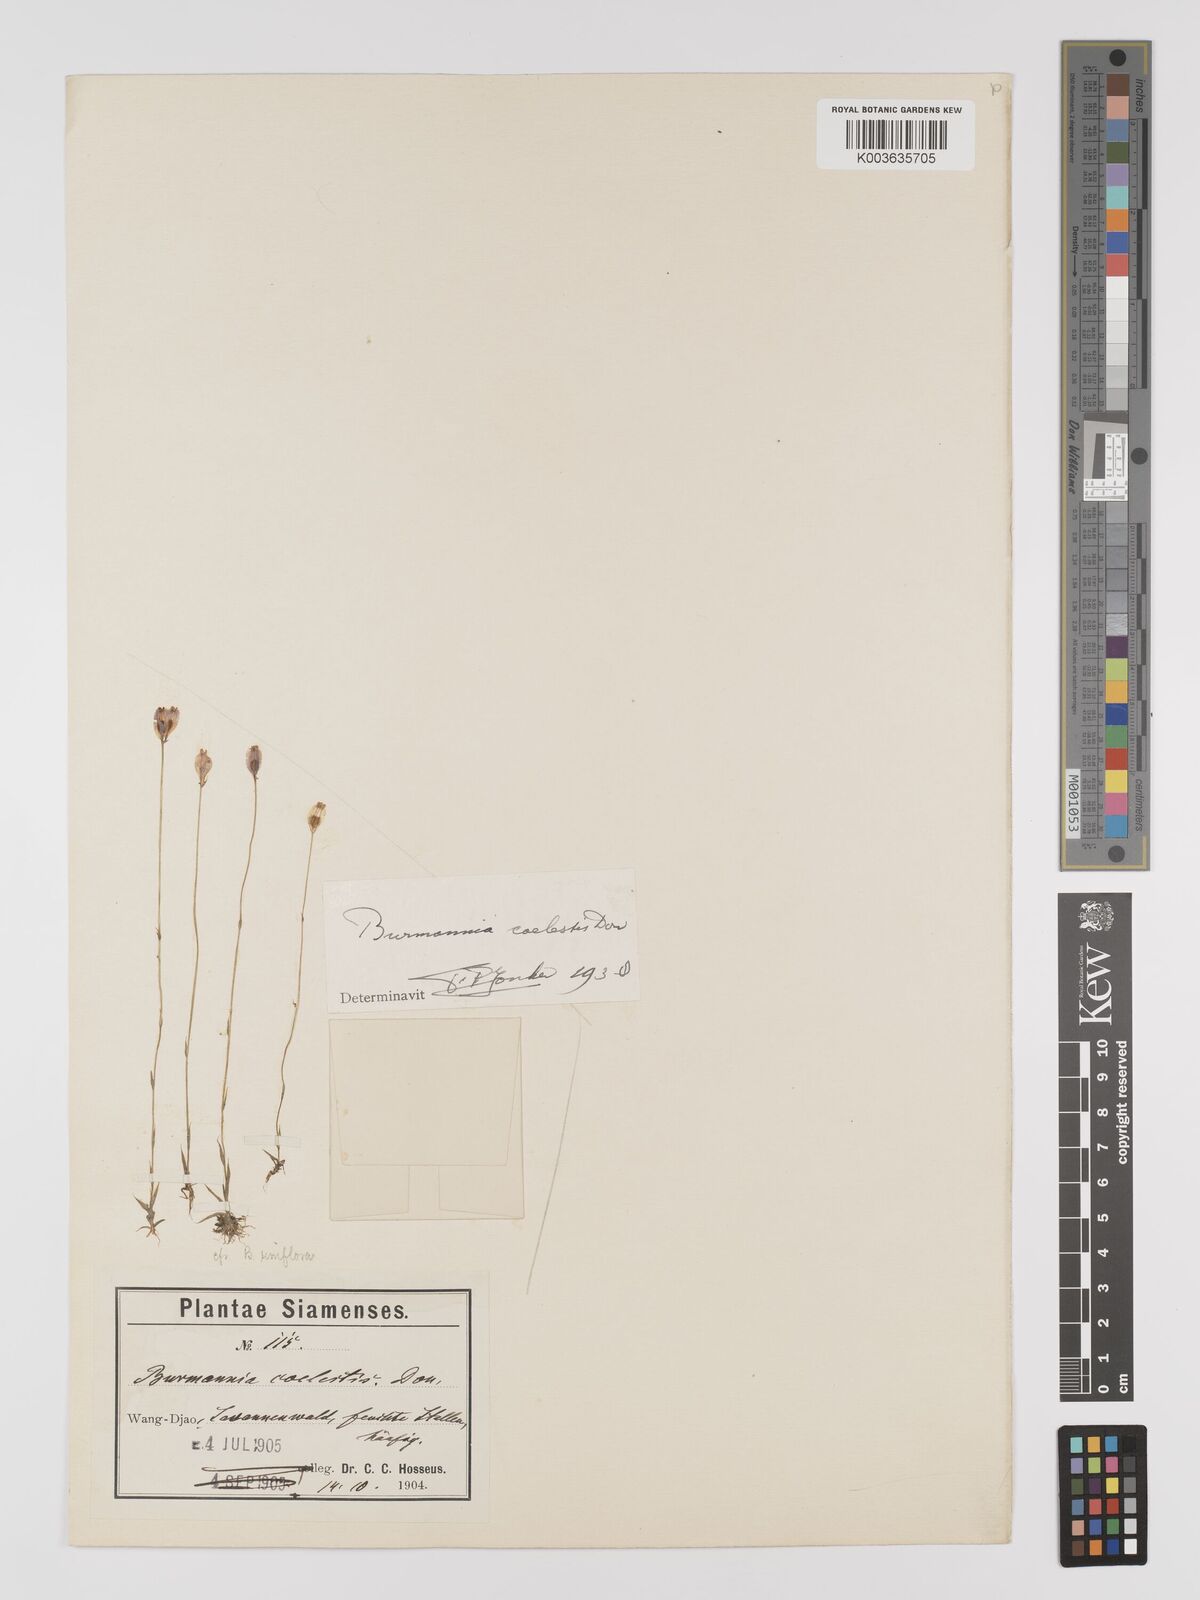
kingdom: Plantae
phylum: Tracheophyta
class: Liliopsida
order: Dioscoreales
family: Burmanniaceae
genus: Burmannia
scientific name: Burmannia coelestis
